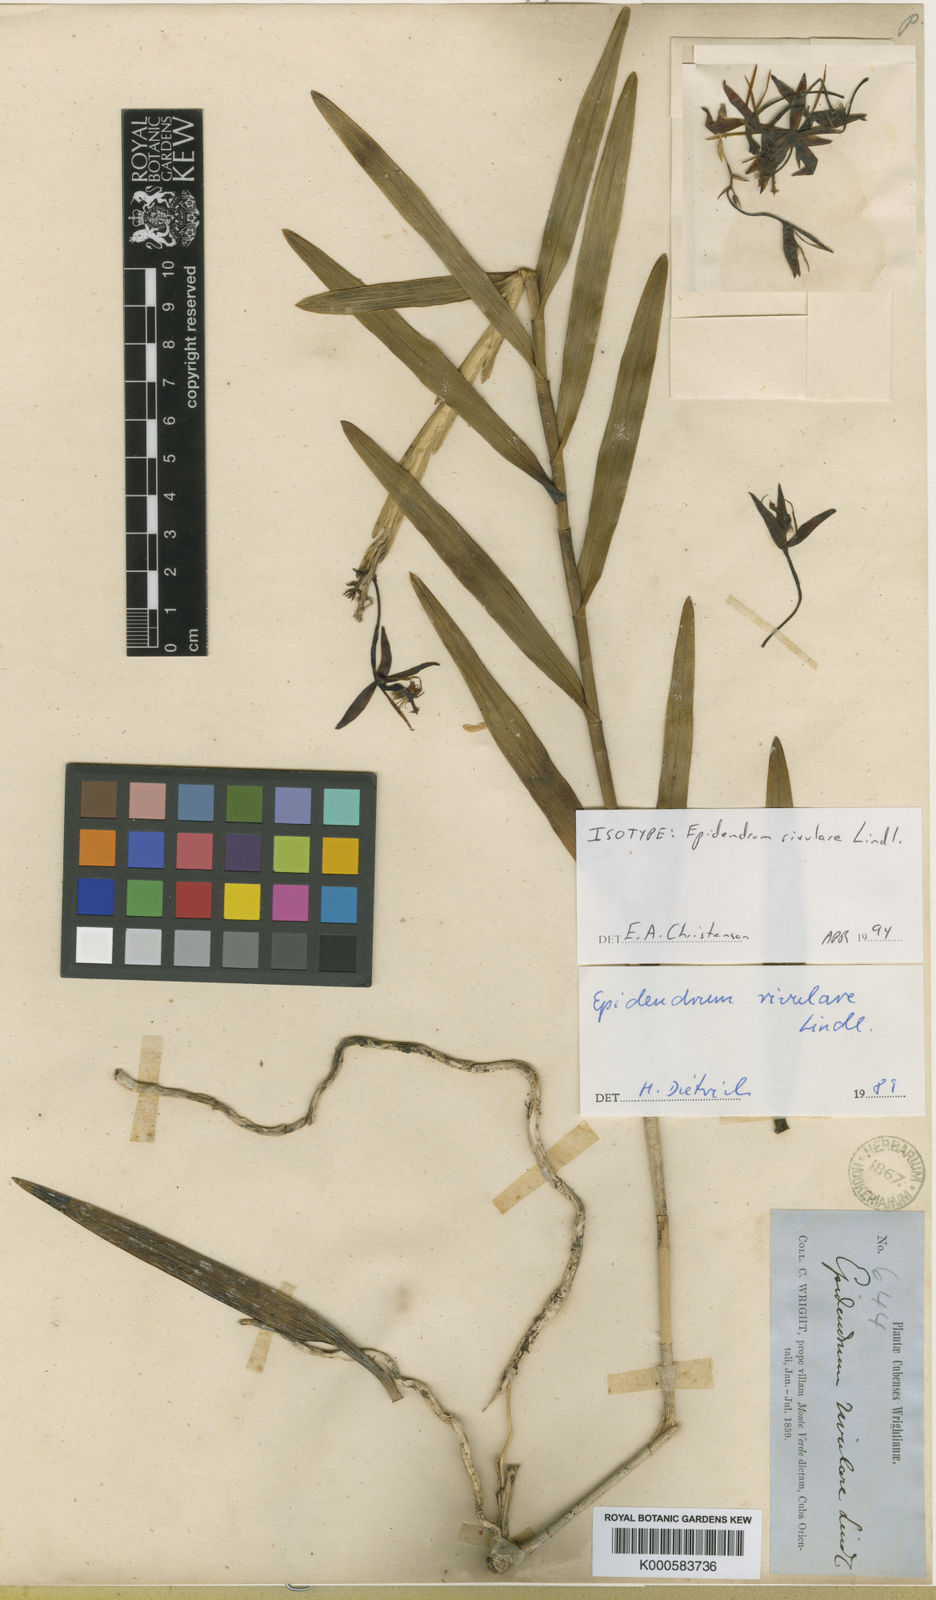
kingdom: Plantae
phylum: Tracheophyta
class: Liliopsida
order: Asparagales
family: Orchidaceae
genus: Epidendrum
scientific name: Epidendrum rivulare
